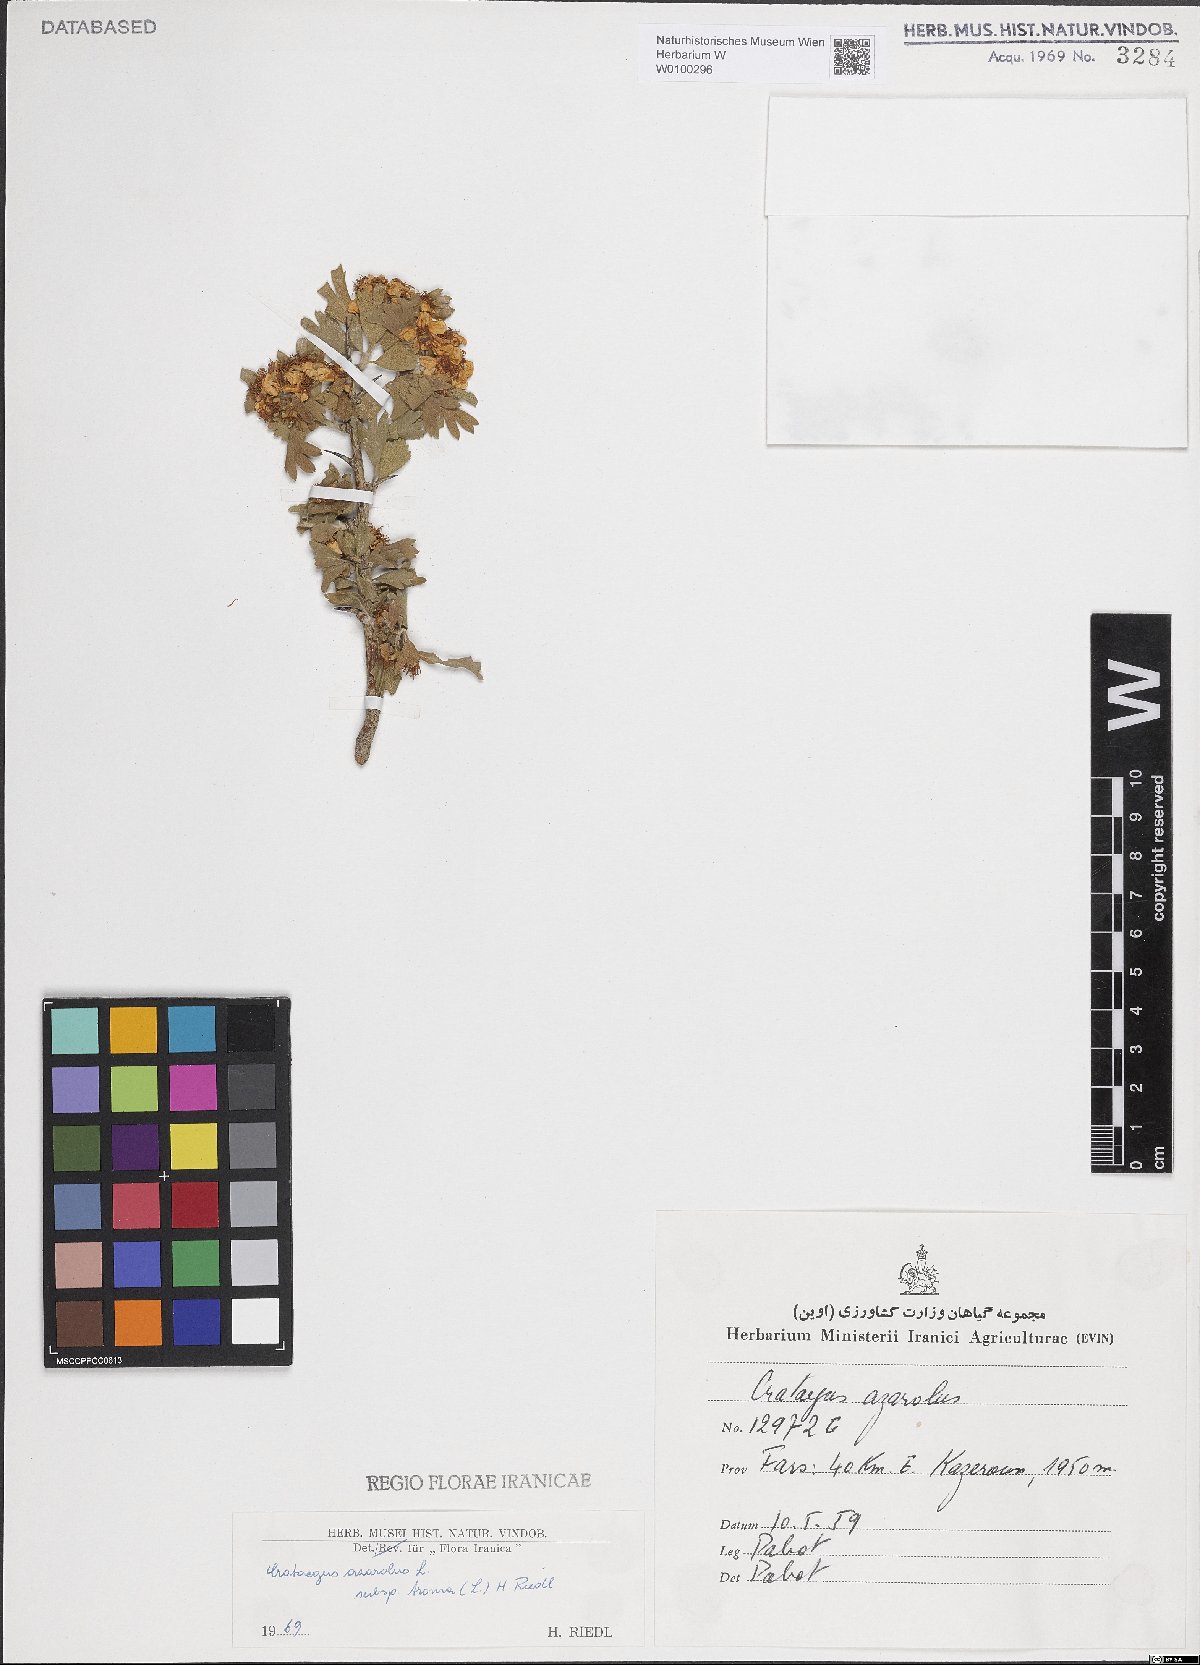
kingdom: Plantae
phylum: Tracheophyta
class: Magnoliopsida
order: Rosales
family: Rosaceae
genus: Crataegus
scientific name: Crataegus azarolus
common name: Azarole
